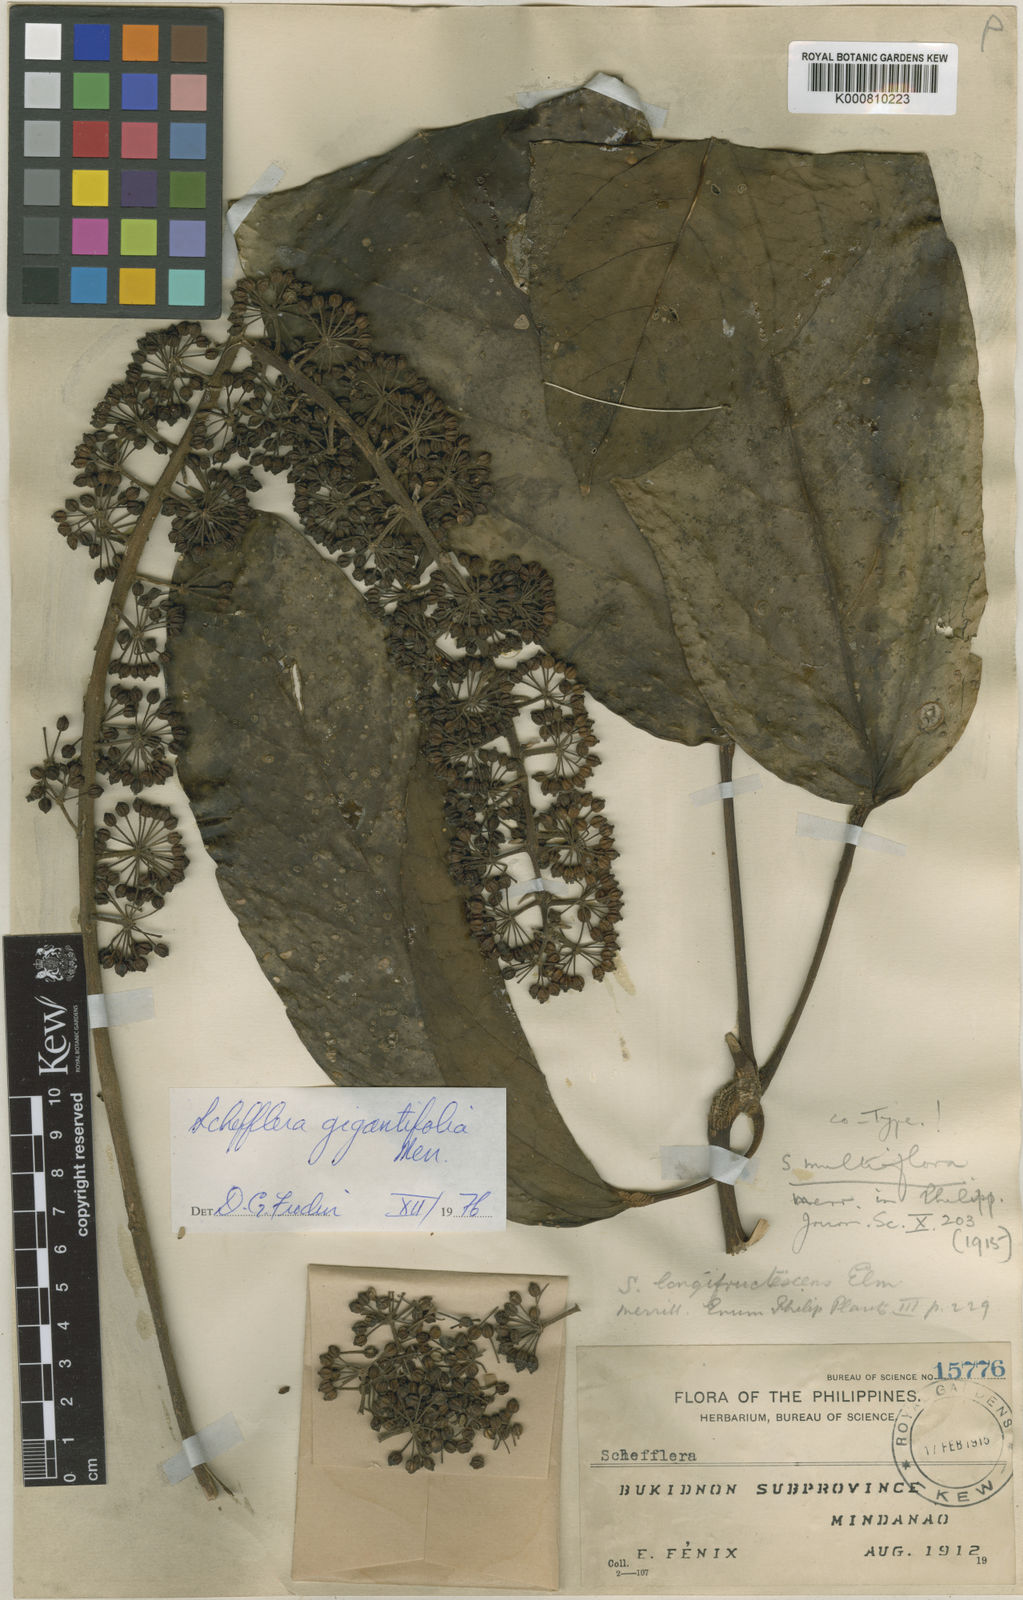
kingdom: Plantae
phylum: Tracheophyta
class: Magnoliopsida
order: Apiales
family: Araliaceae
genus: Heptapleurum
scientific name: Heptapleurum multiflorum
